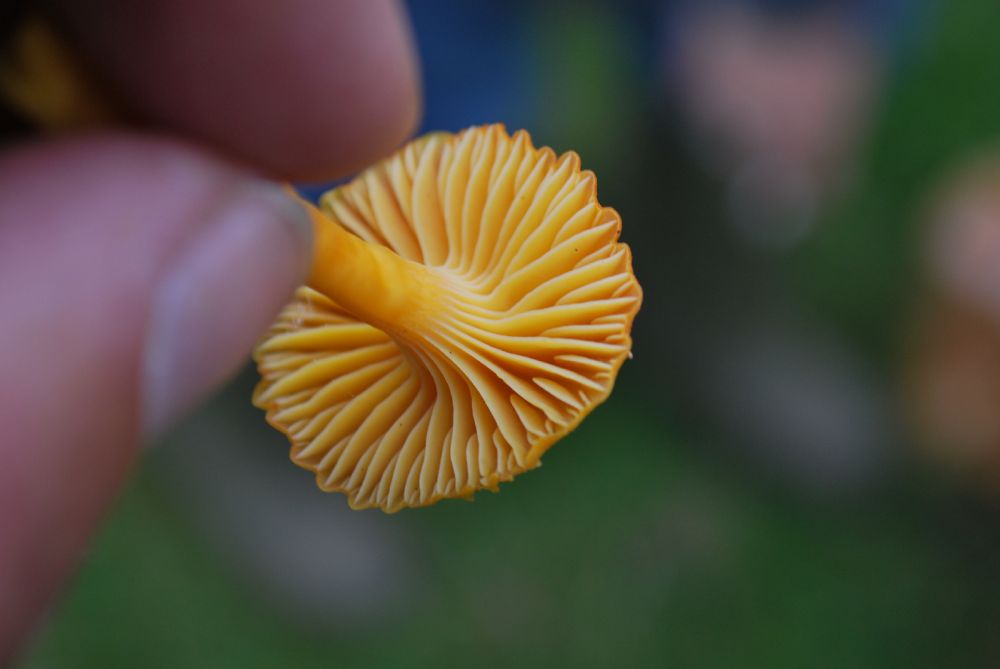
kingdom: Fungi
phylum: Basidiomycota
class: Agaricomycetes
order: Agaricales
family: Hygrophoraceae
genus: Hygrocybe
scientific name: Hygrocybe
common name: vokshat
